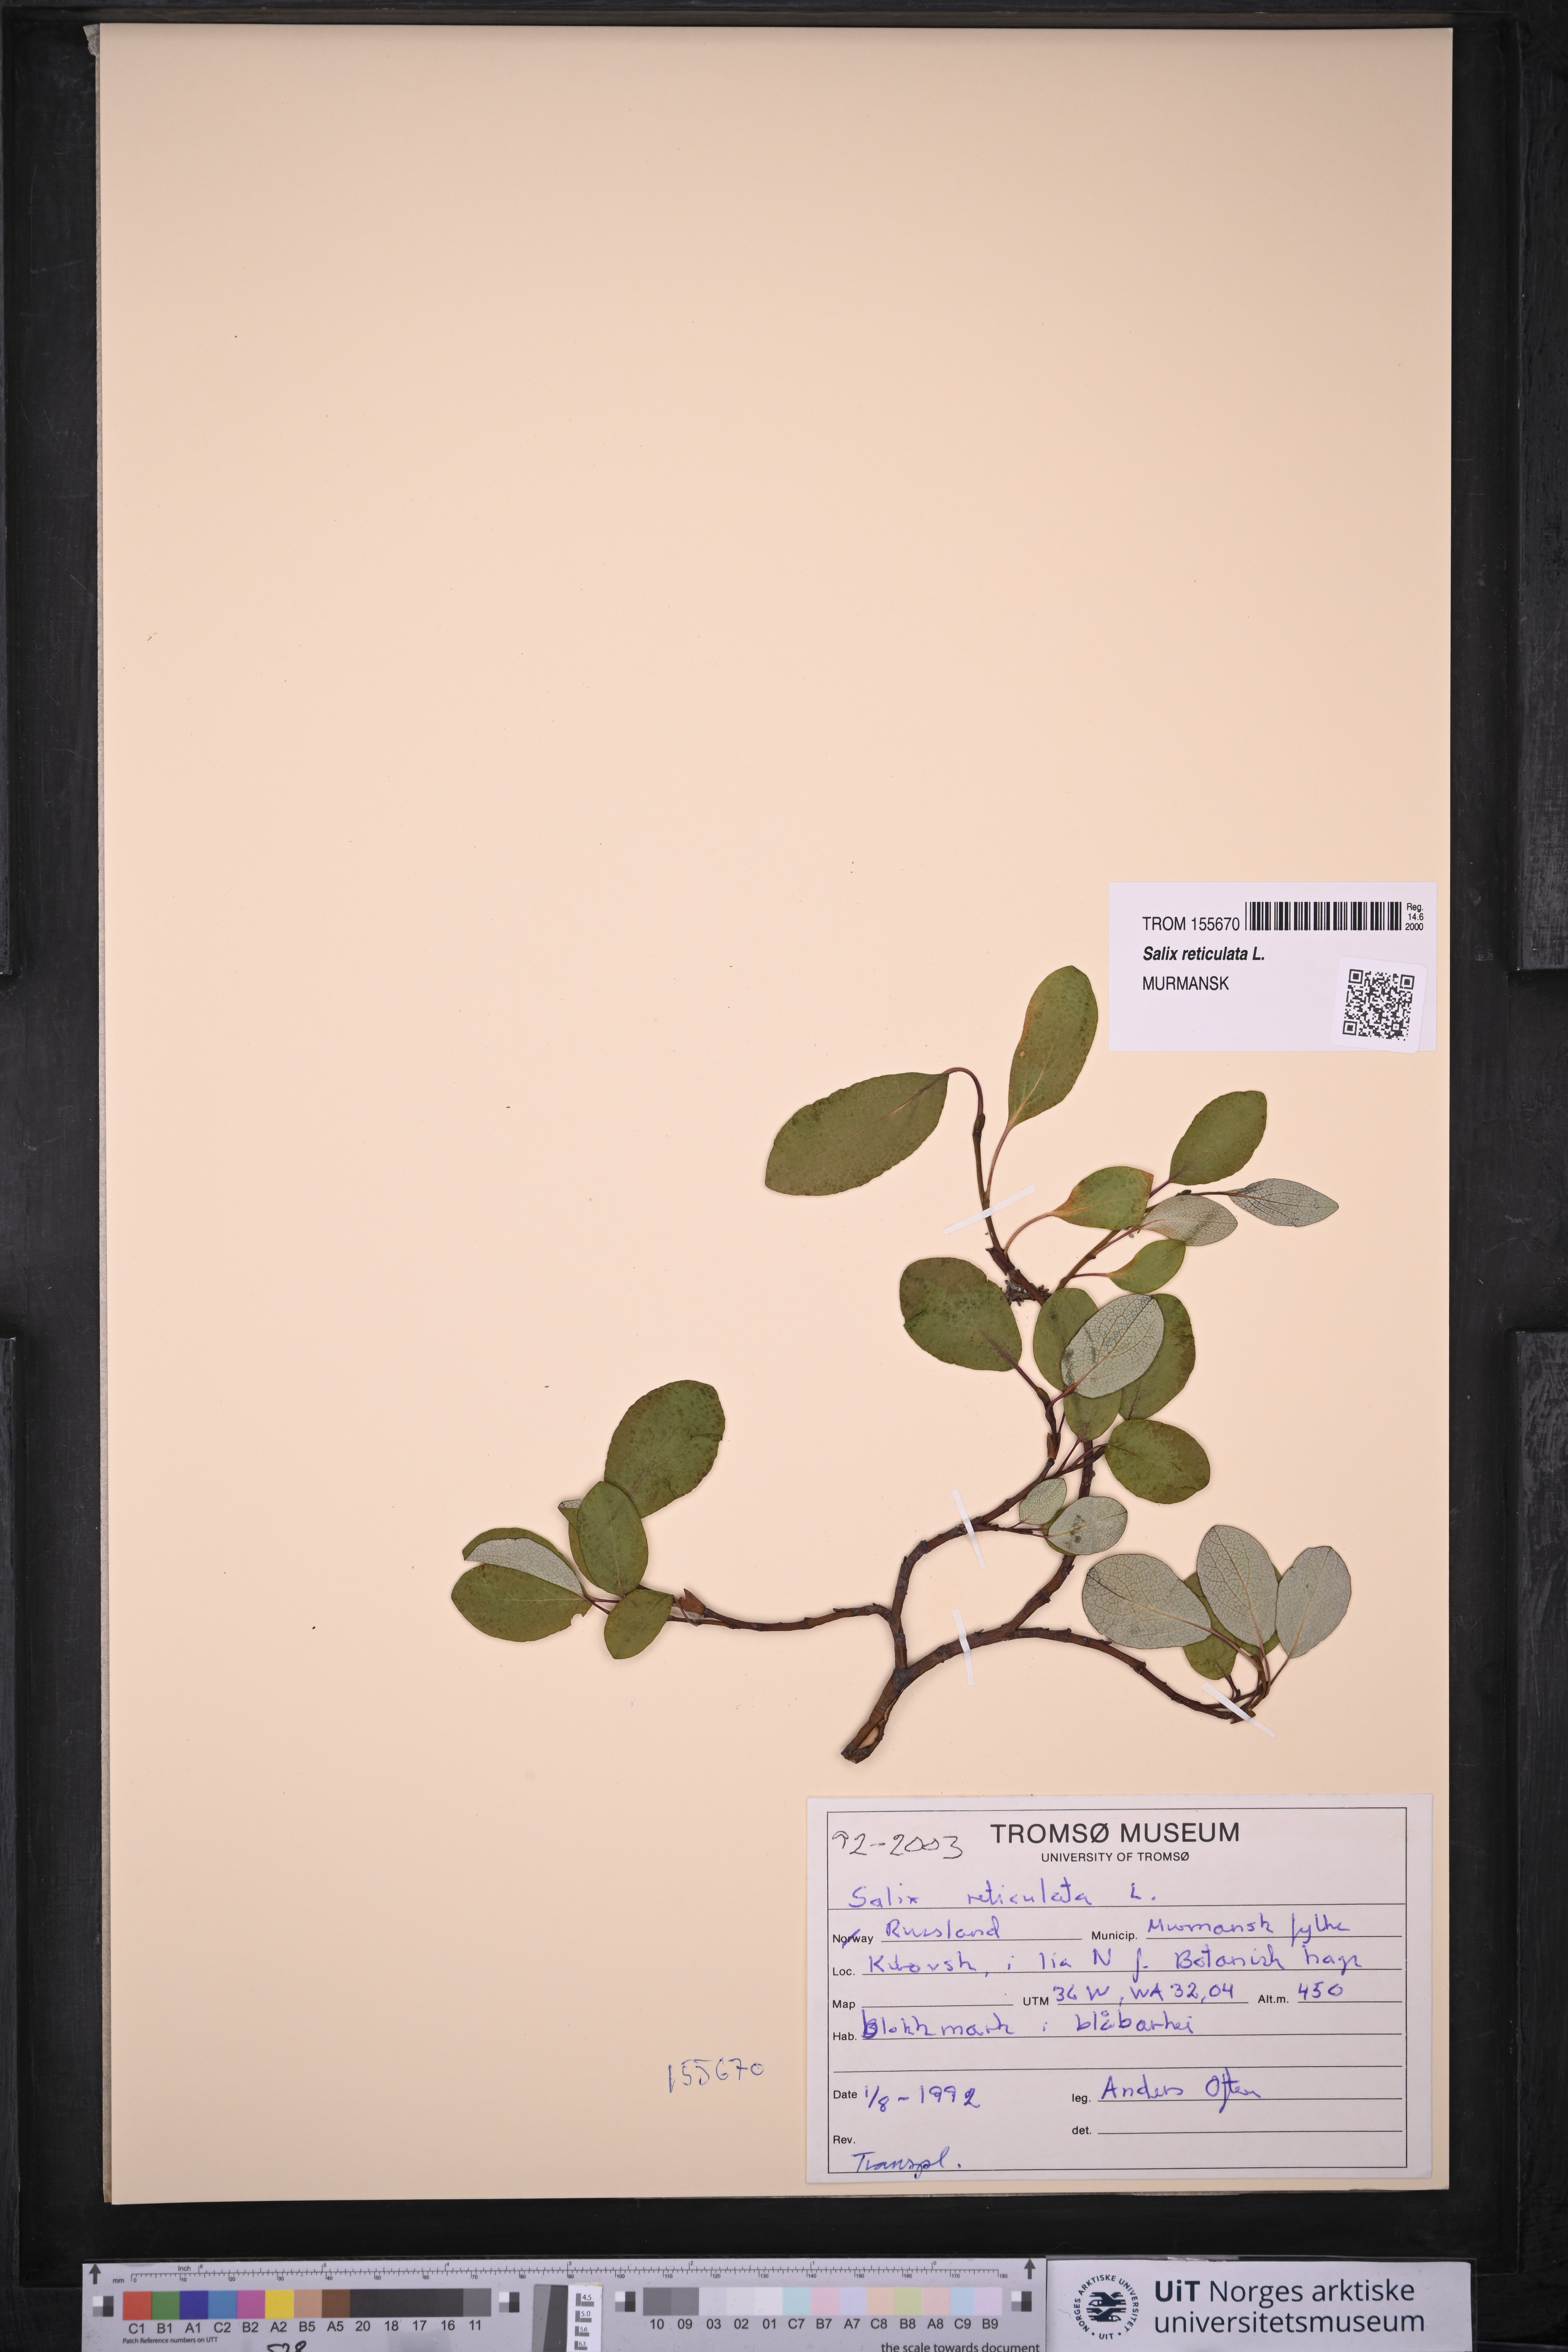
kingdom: Plantae
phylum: Tracheophyta
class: Magnoliopsida
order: Malpighiales
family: Salicaceae
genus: Salix
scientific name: Salix reticulata
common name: Net-leaved willow
